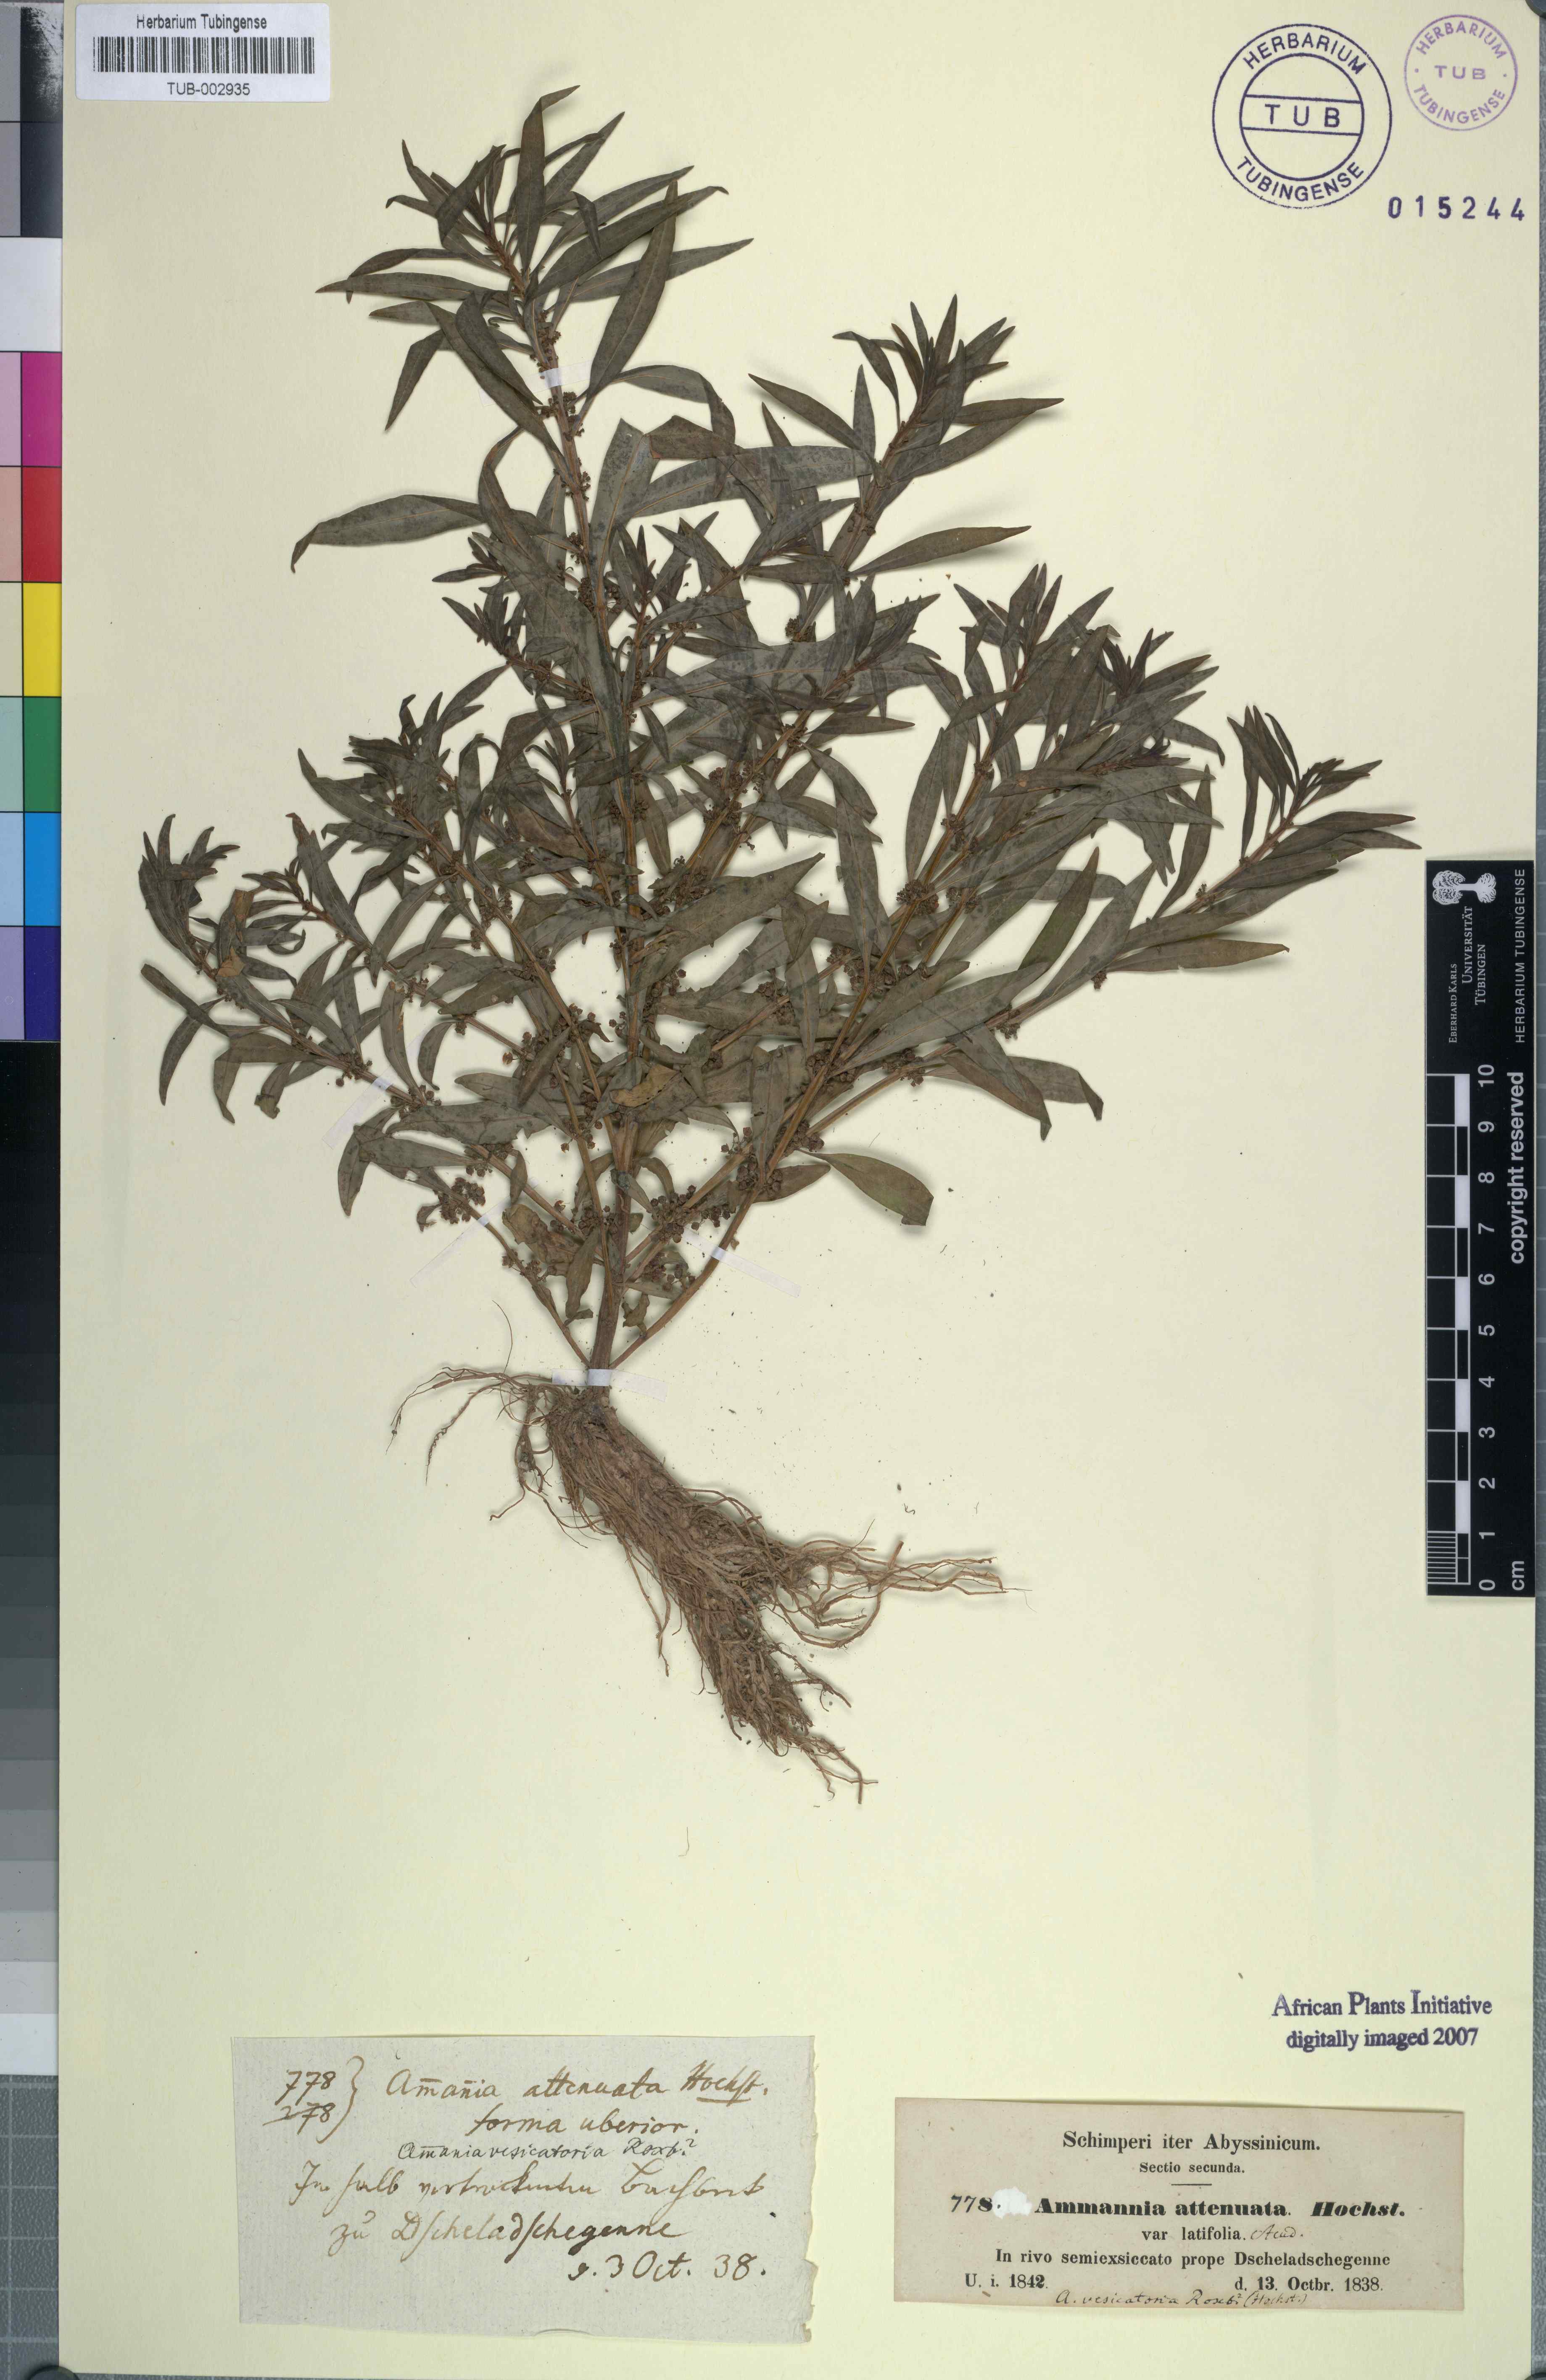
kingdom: Plantae
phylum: Tracheophyta
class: Magnoliopsida
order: Myrtales
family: Lythraceae
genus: Ammannia
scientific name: Ammannia baccifera
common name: Blistering ammania
